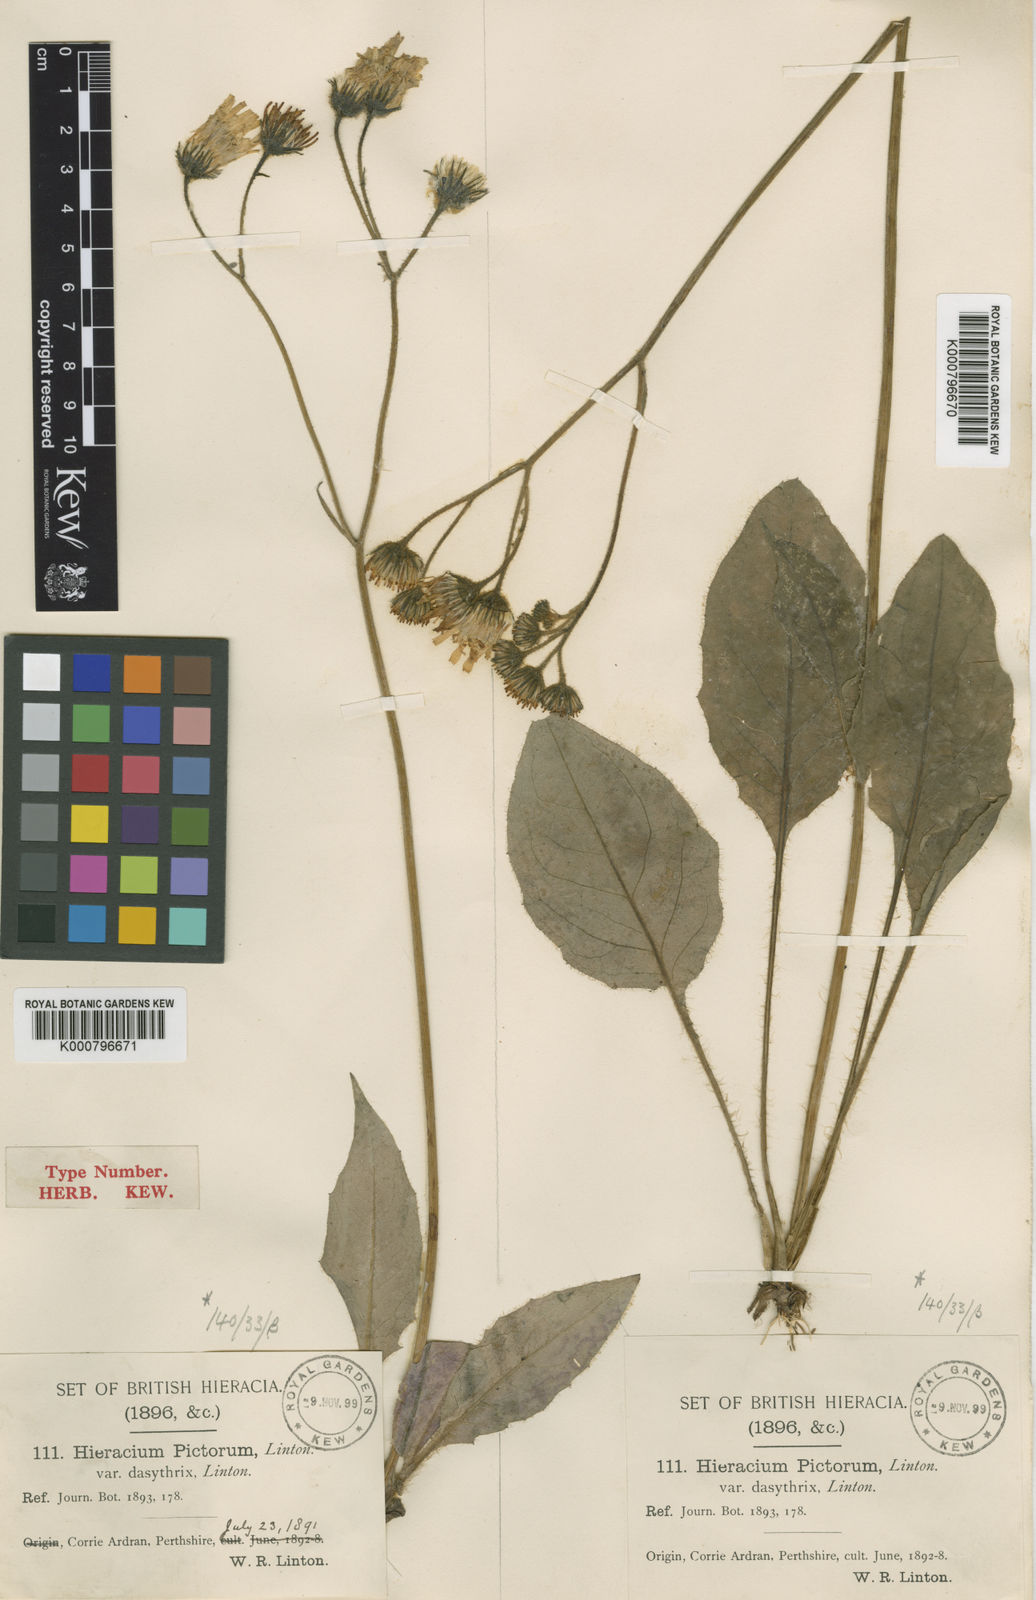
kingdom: Plantae
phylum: Tracheophyta
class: Magnoliopsida
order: Asterales
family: Asteraceae
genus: Hieracium
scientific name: Hieracium dasythrix
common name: Dense-haired hawkweed
